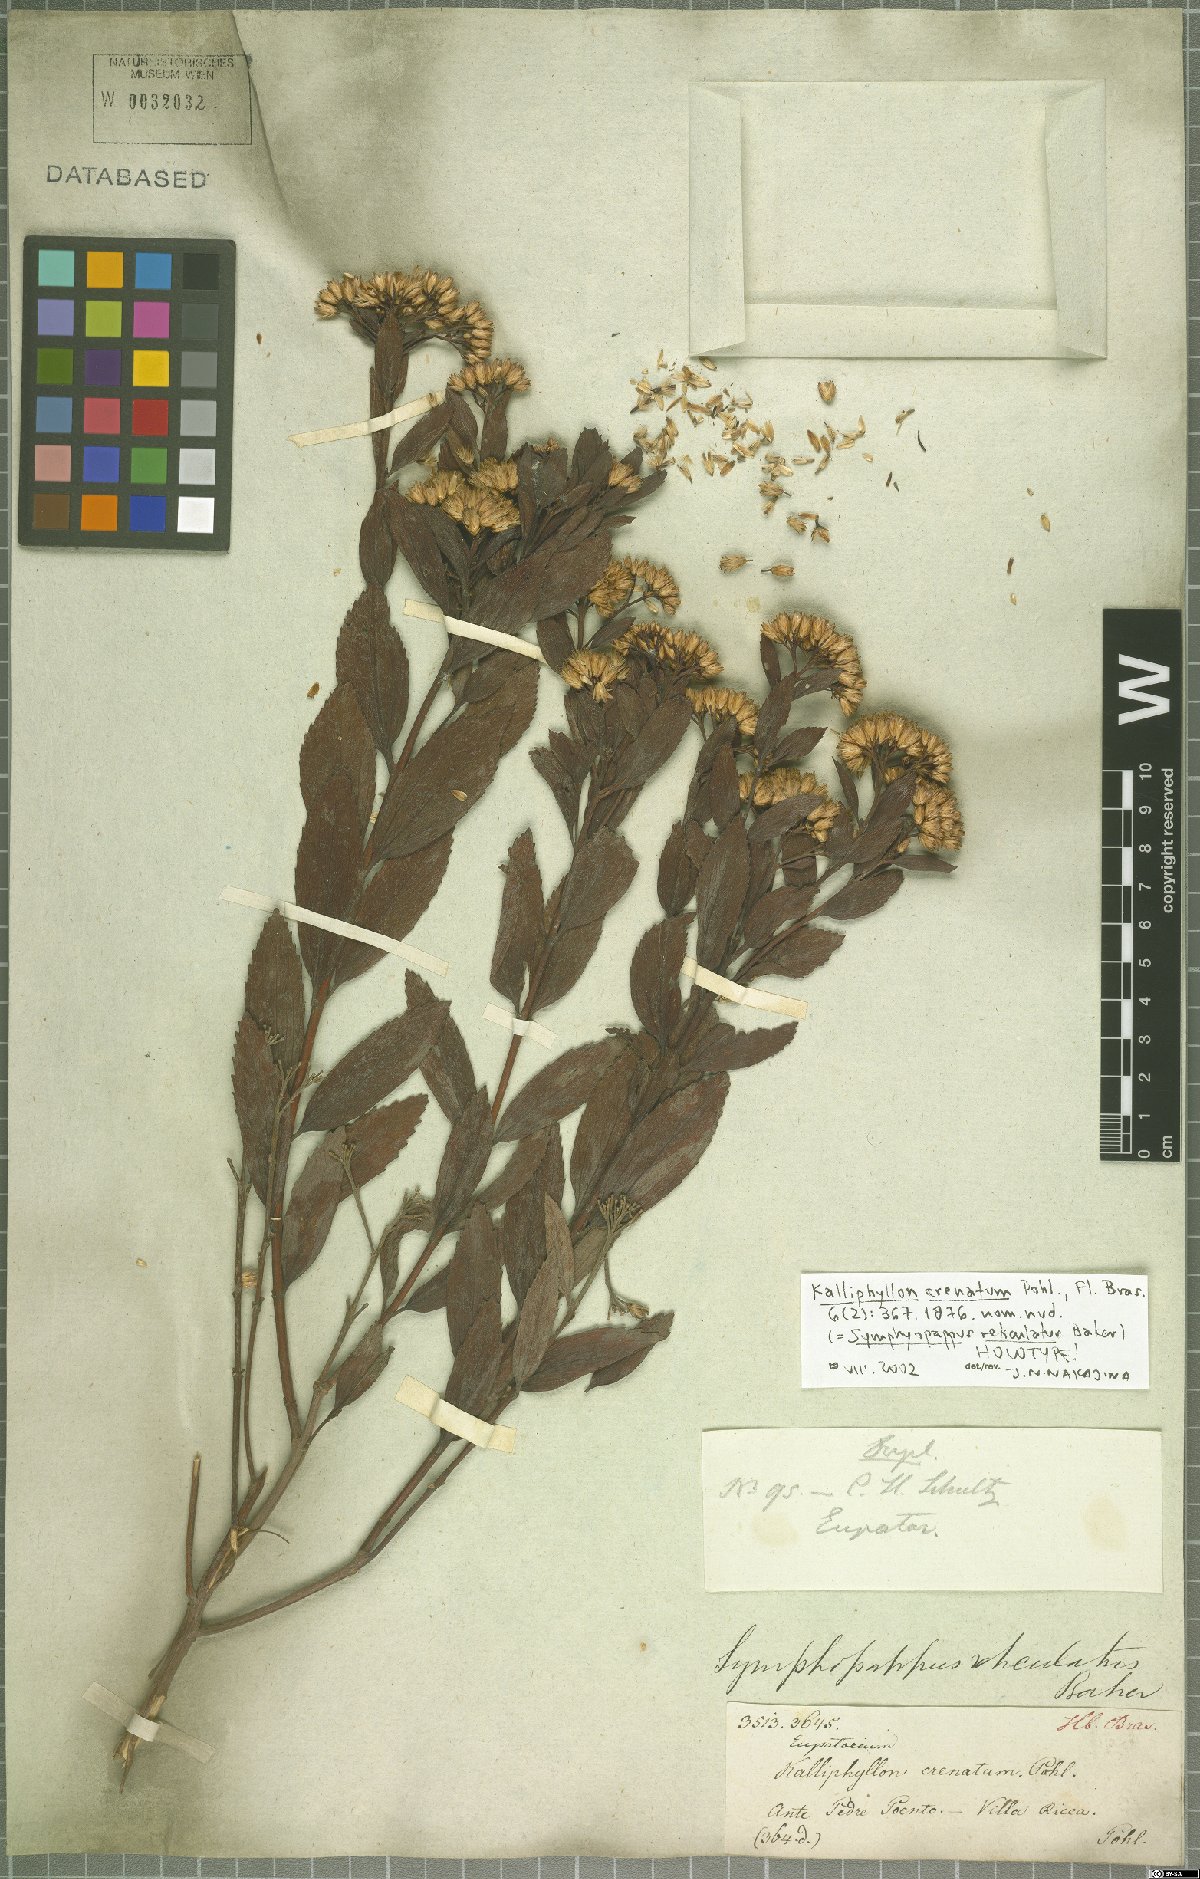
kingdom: Plantae
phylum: Tracheophyta
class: Magnoliopsida
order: Asterales
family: Asteraceae
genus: Symphyopappus
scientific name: Symphyopappus reticulatus
